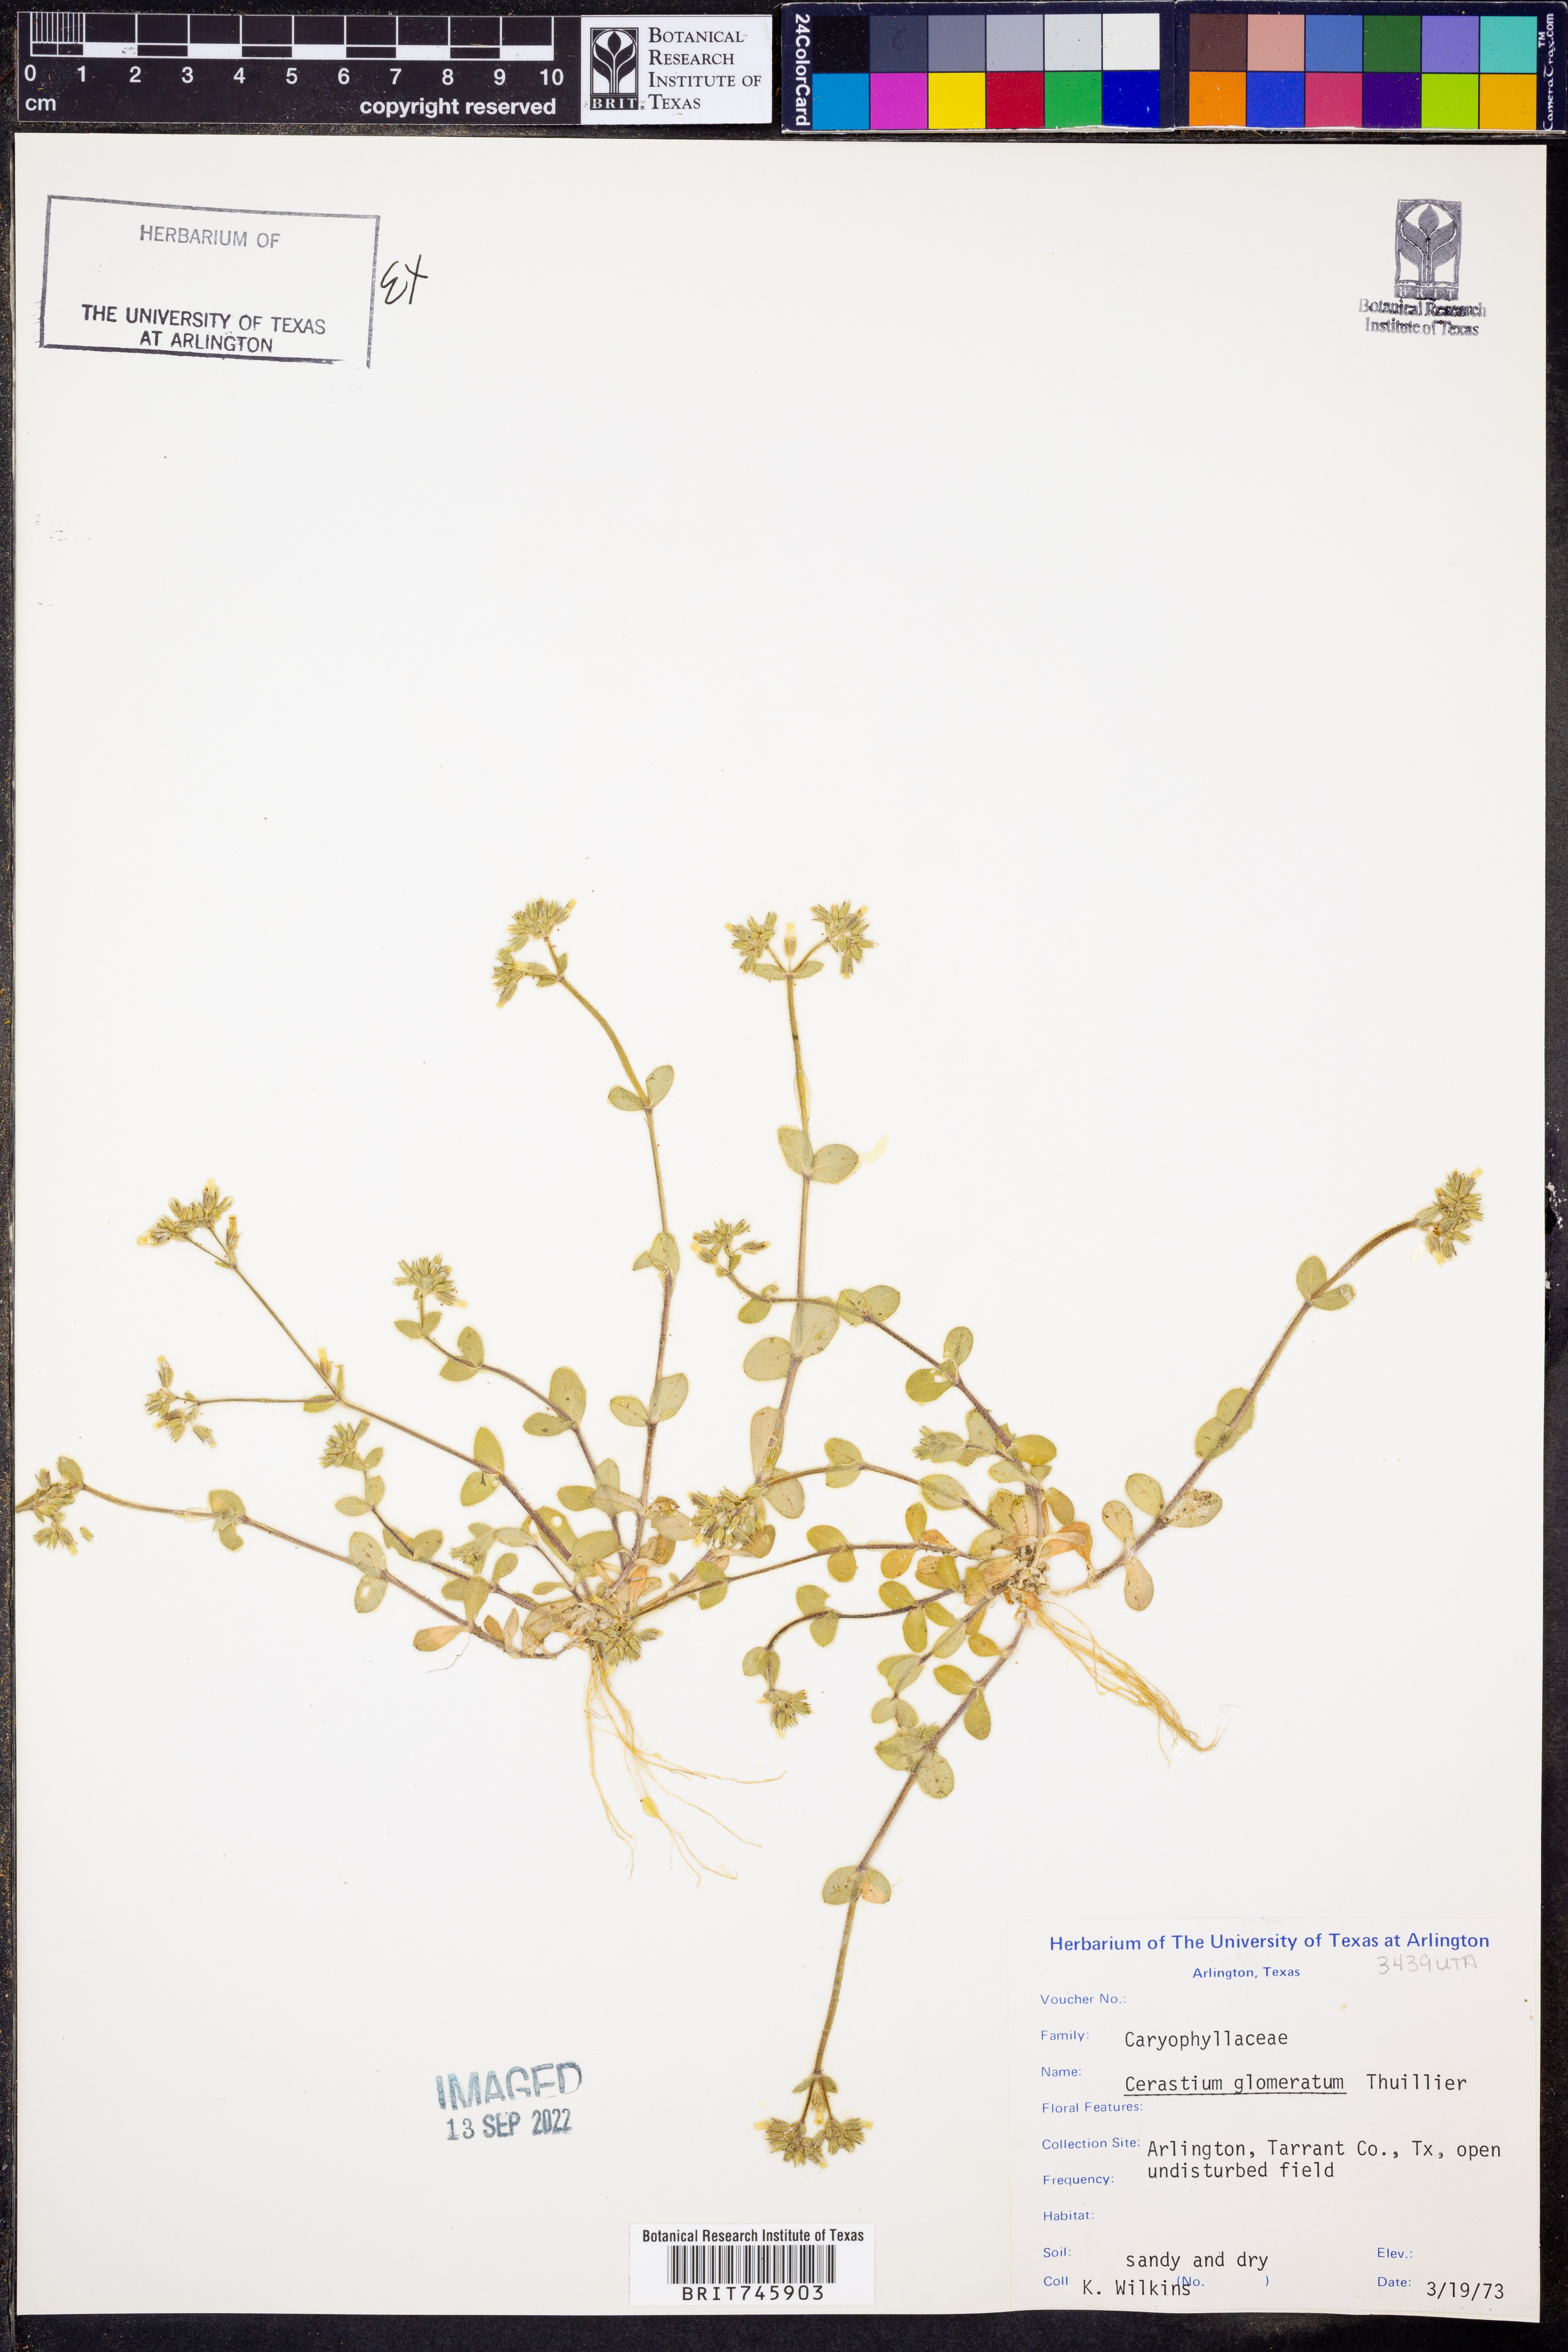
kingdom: Plantae
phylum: Tracheophyta
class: Magnoliopsida
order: Caryophyllales
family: Caryophyllaceae
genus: Cerastium
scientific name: Cerastium glomeratum
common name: Sticky chickweed
